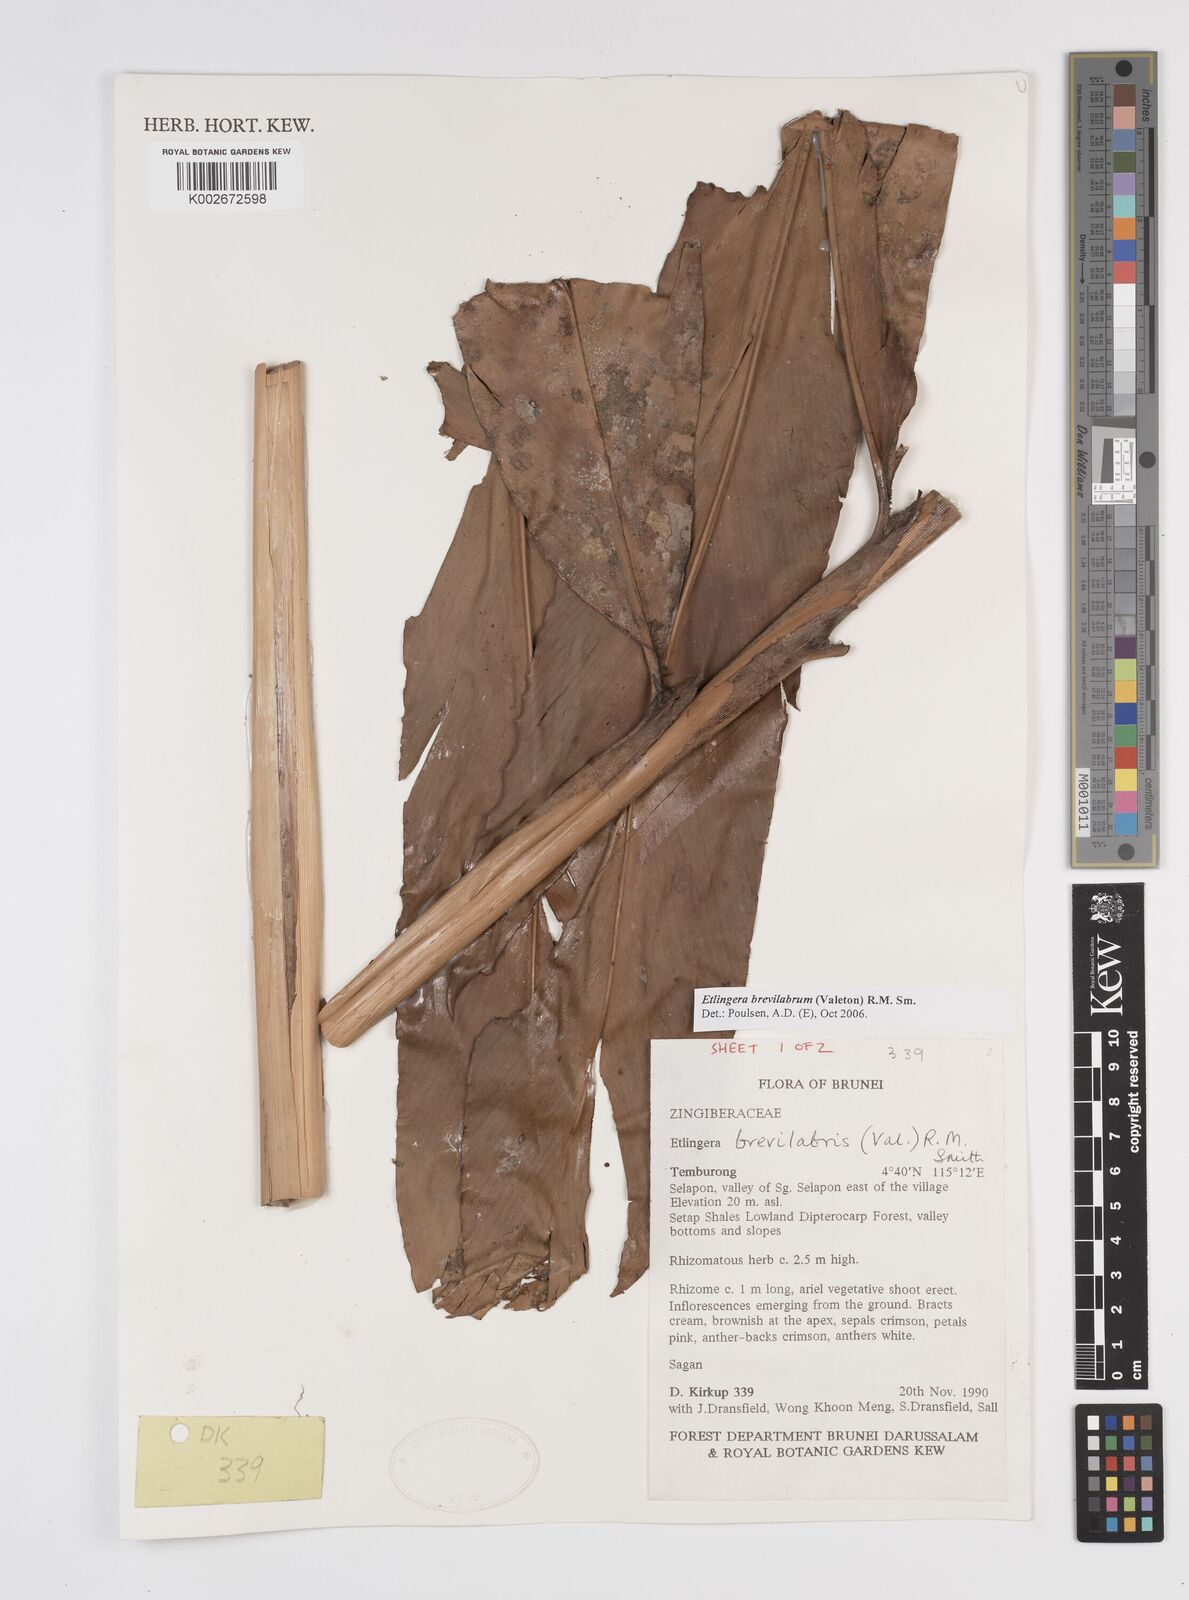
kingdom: Plantae
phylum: Tracheophyta
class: Liliopsida
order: Zingiberales
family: Zingiberaceae
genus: Etlingera
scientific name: Etlingera brevilabrum
